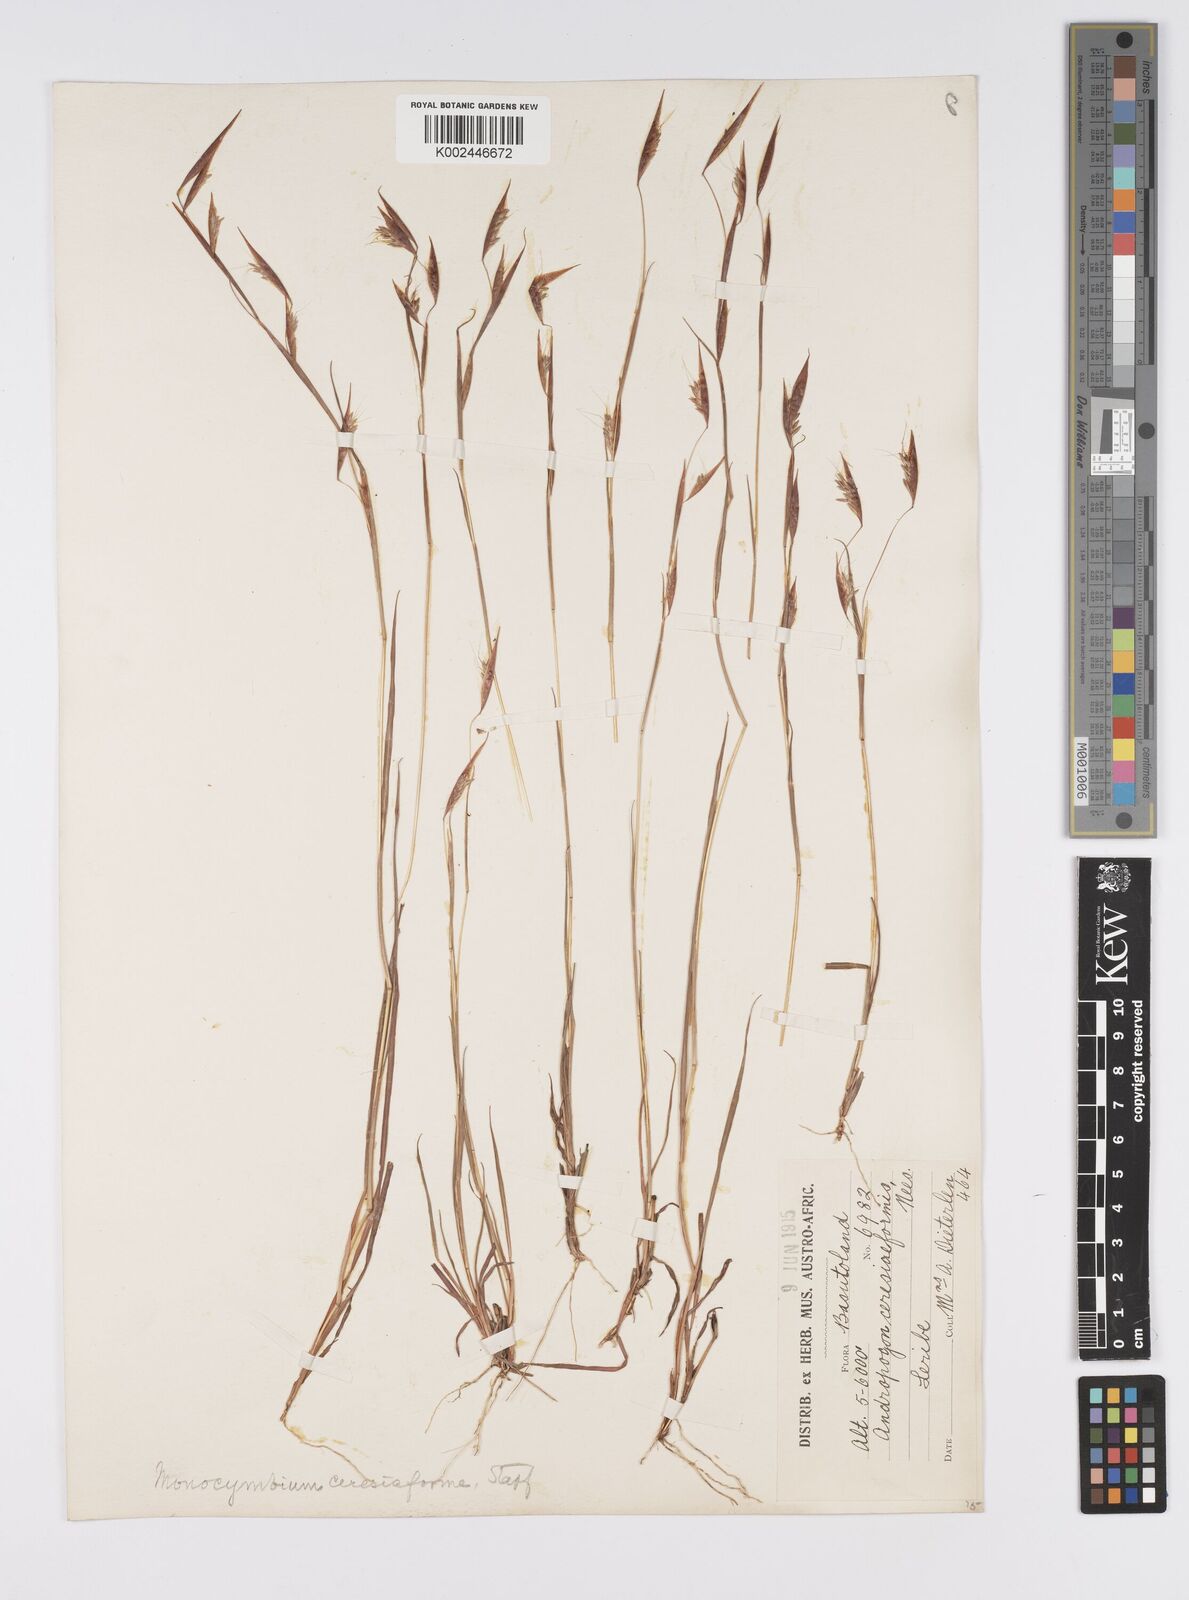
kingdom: Plantae
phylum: Tracheophyta
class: Liliopsida
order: Poales
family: Poaceae
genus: Monocymbium
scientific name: Monocymbium ceresiiforme
